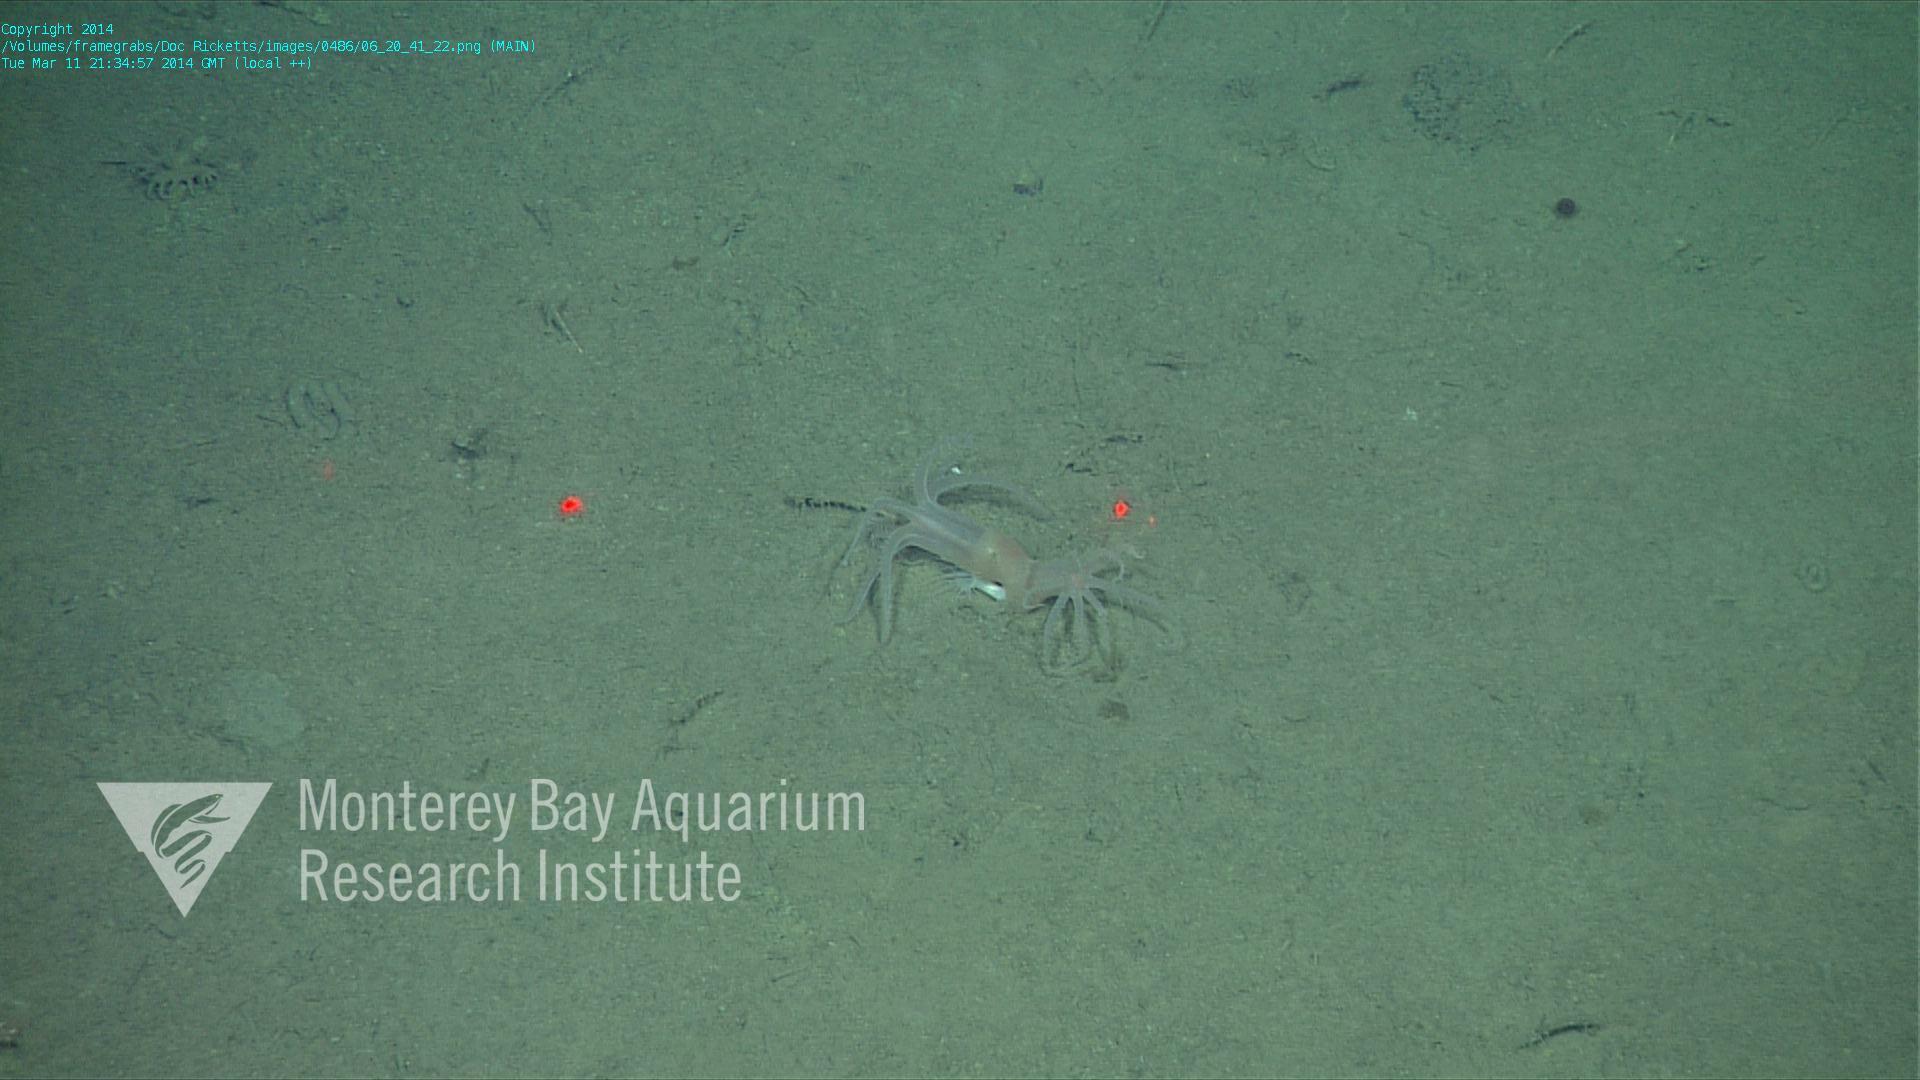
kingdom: Animalia
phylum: Cnidaria
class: Anthozoa
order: Scleralcyonacea
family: Coralliidae
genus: Heteropolypus
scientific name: Heteropolypus ritteri
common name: Ritter's soft coral
